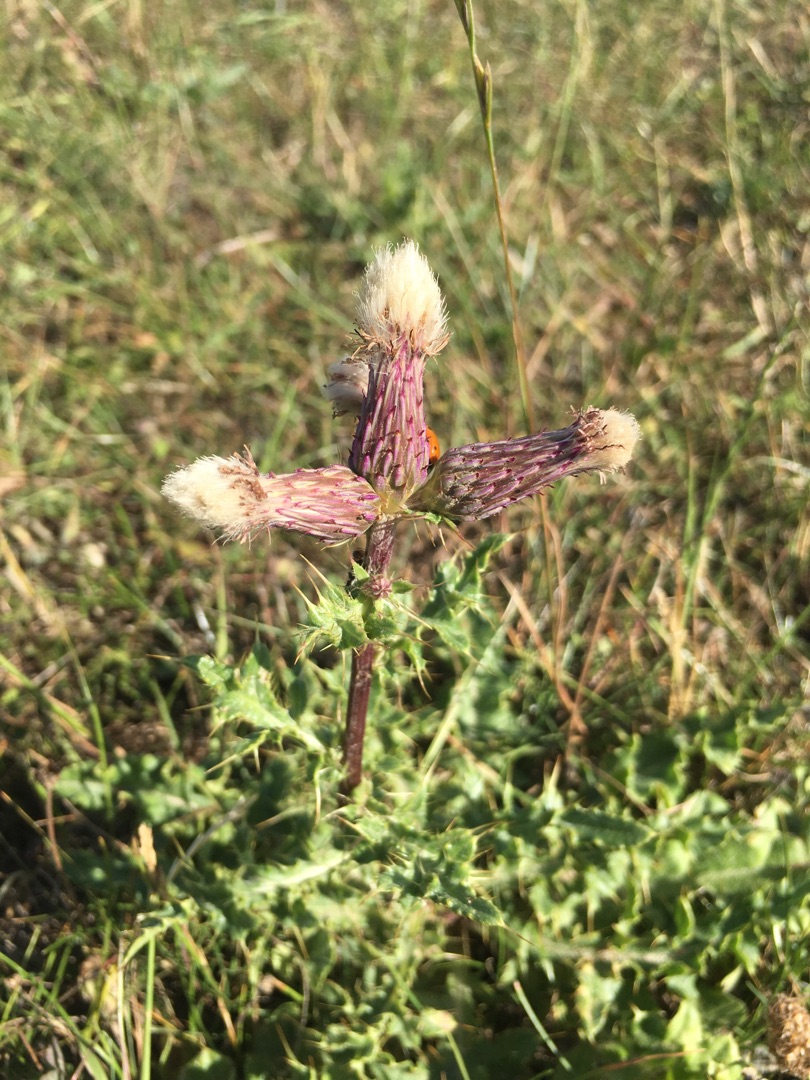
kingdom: Plantae
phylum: Tracheophyta
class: Magnoliopsida
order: Asterales
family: Asteraceae
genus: Cirsium
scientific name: Cirsium arvense
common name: Ager-tidsel
